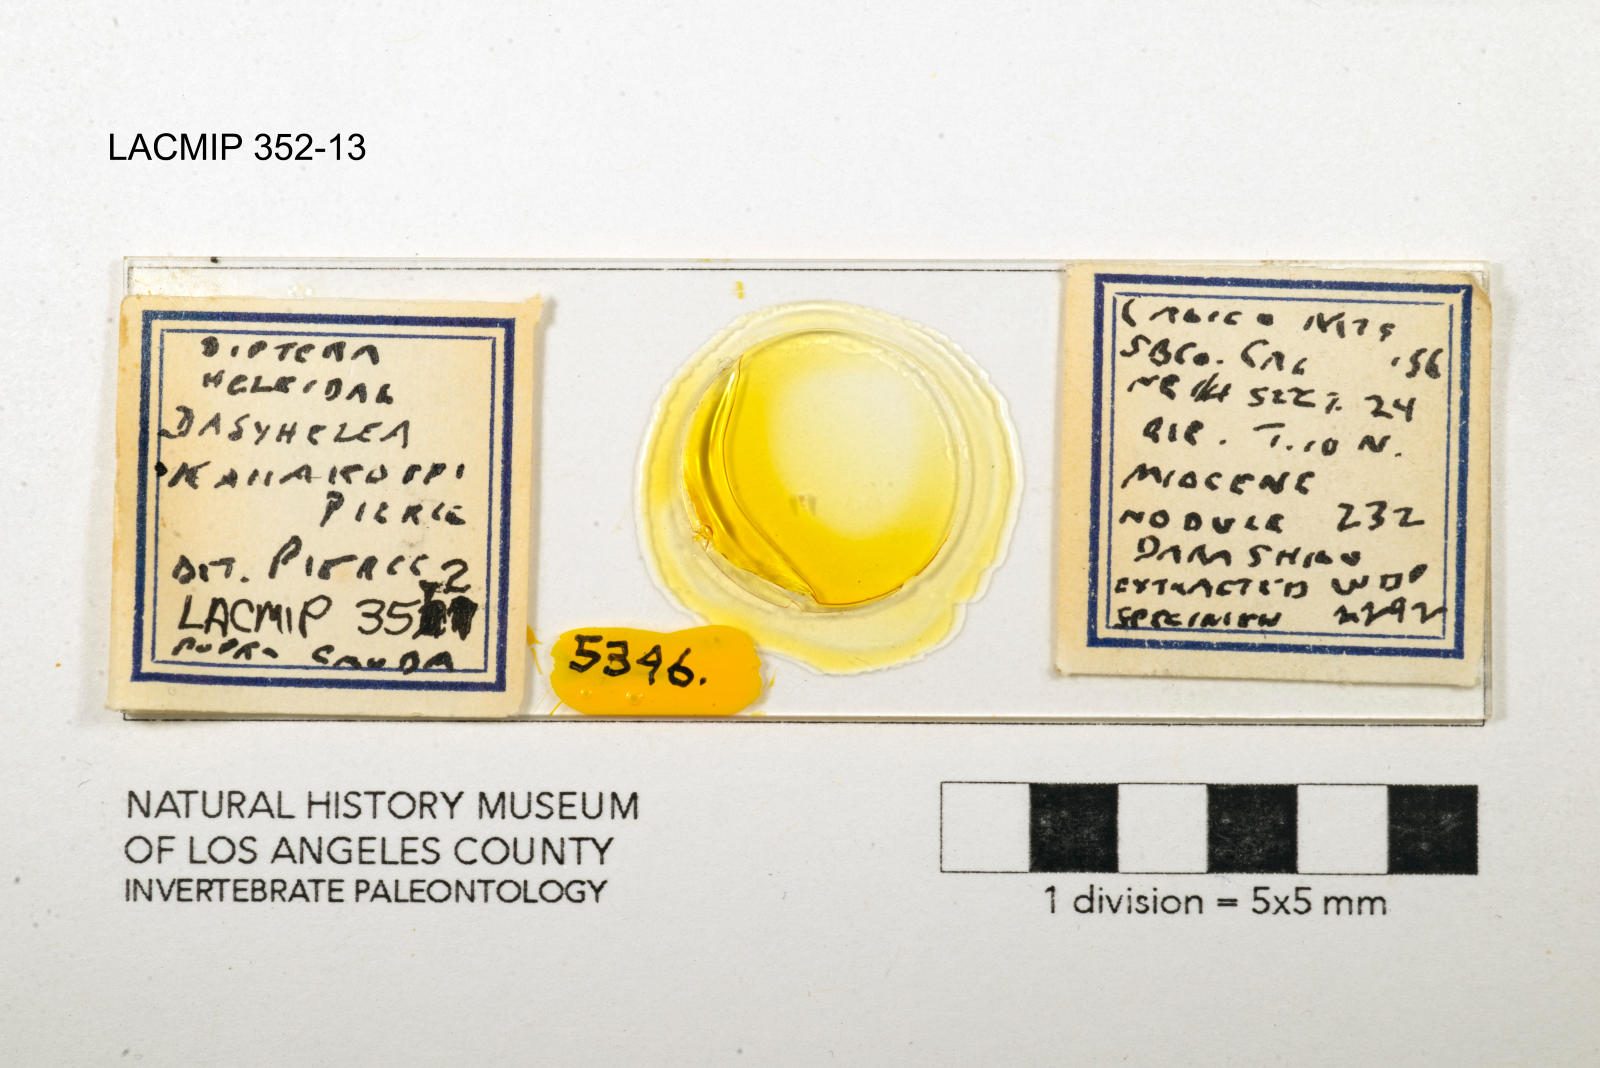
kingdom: Animalia
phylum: Arthropoda
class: Insecta
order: Diptera
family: Ceratopogonidae
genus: Dasyhelea
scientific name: Dasyhelea kanakoffi
